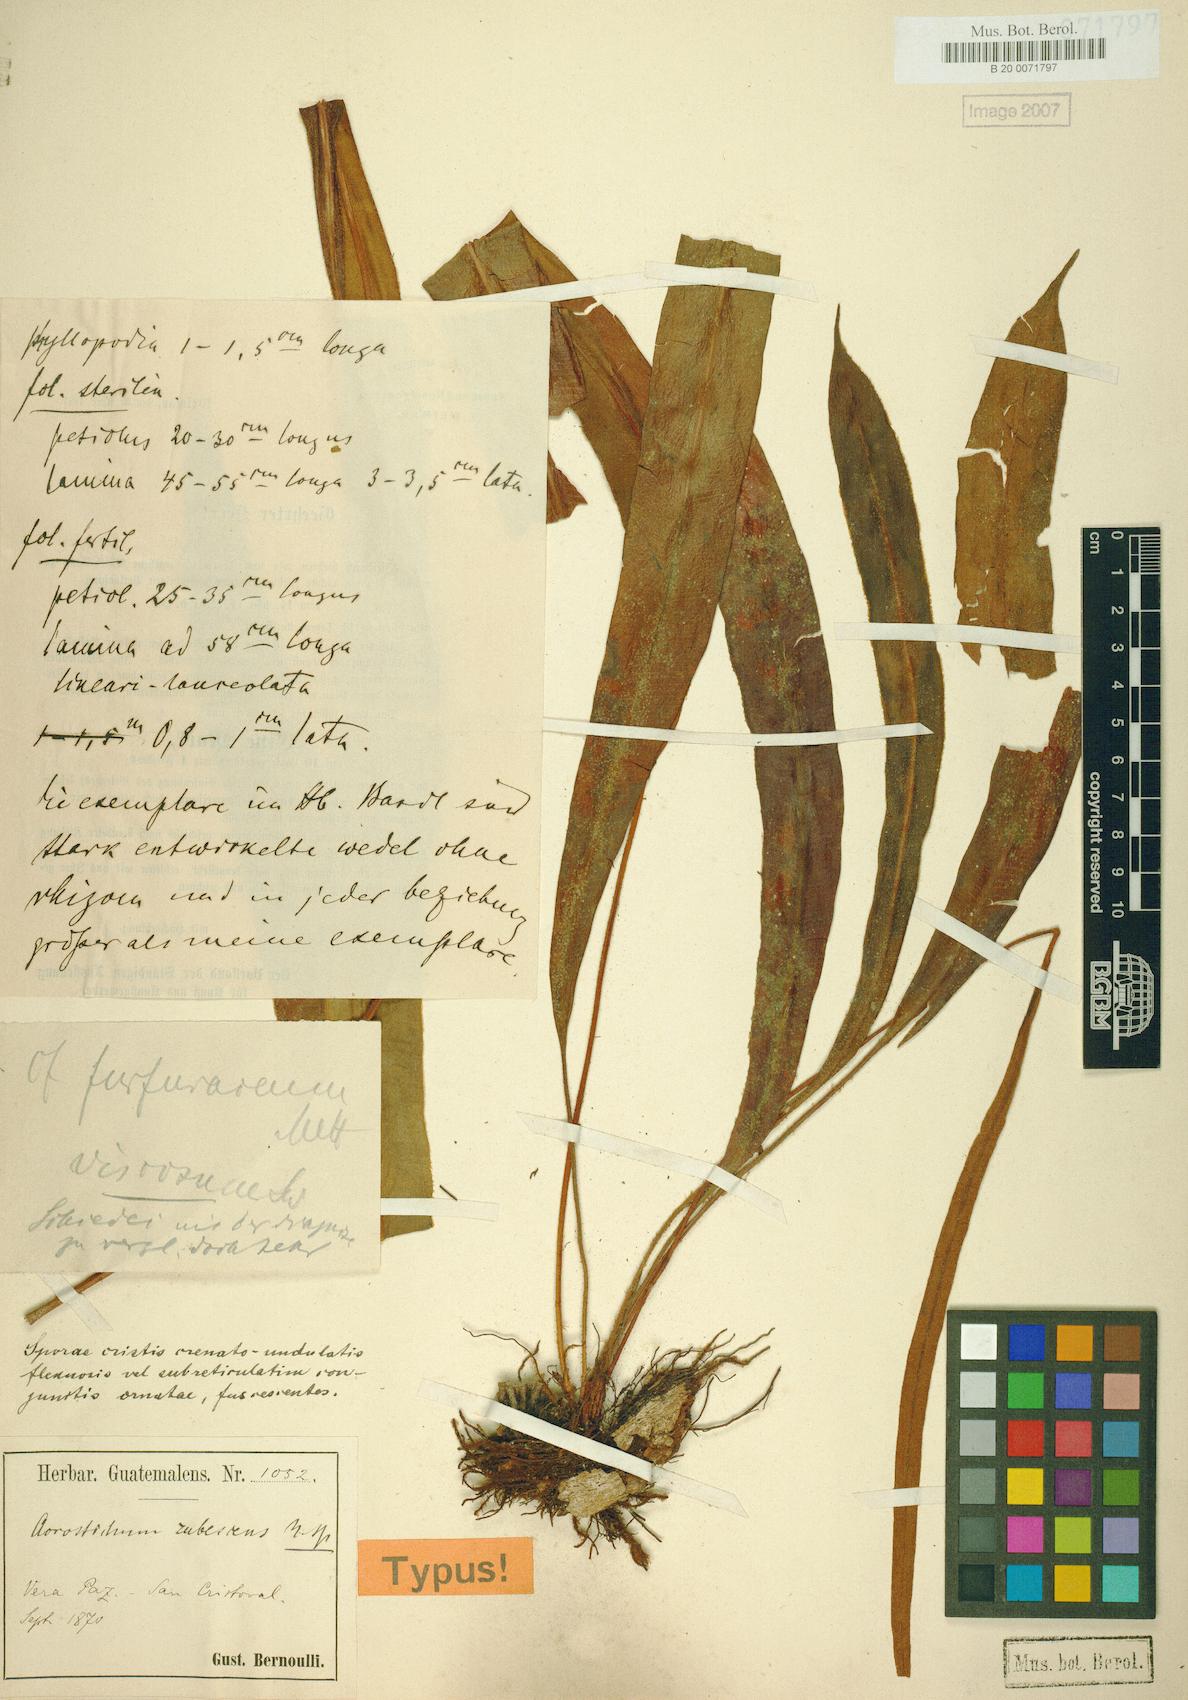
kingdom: Plantae
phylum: Tracheophyta
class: Polypodiopsida
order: Polypodiales
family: Dryopteridaceae
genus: Elaphoglossum
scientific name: Elaphoglossum rubescens
